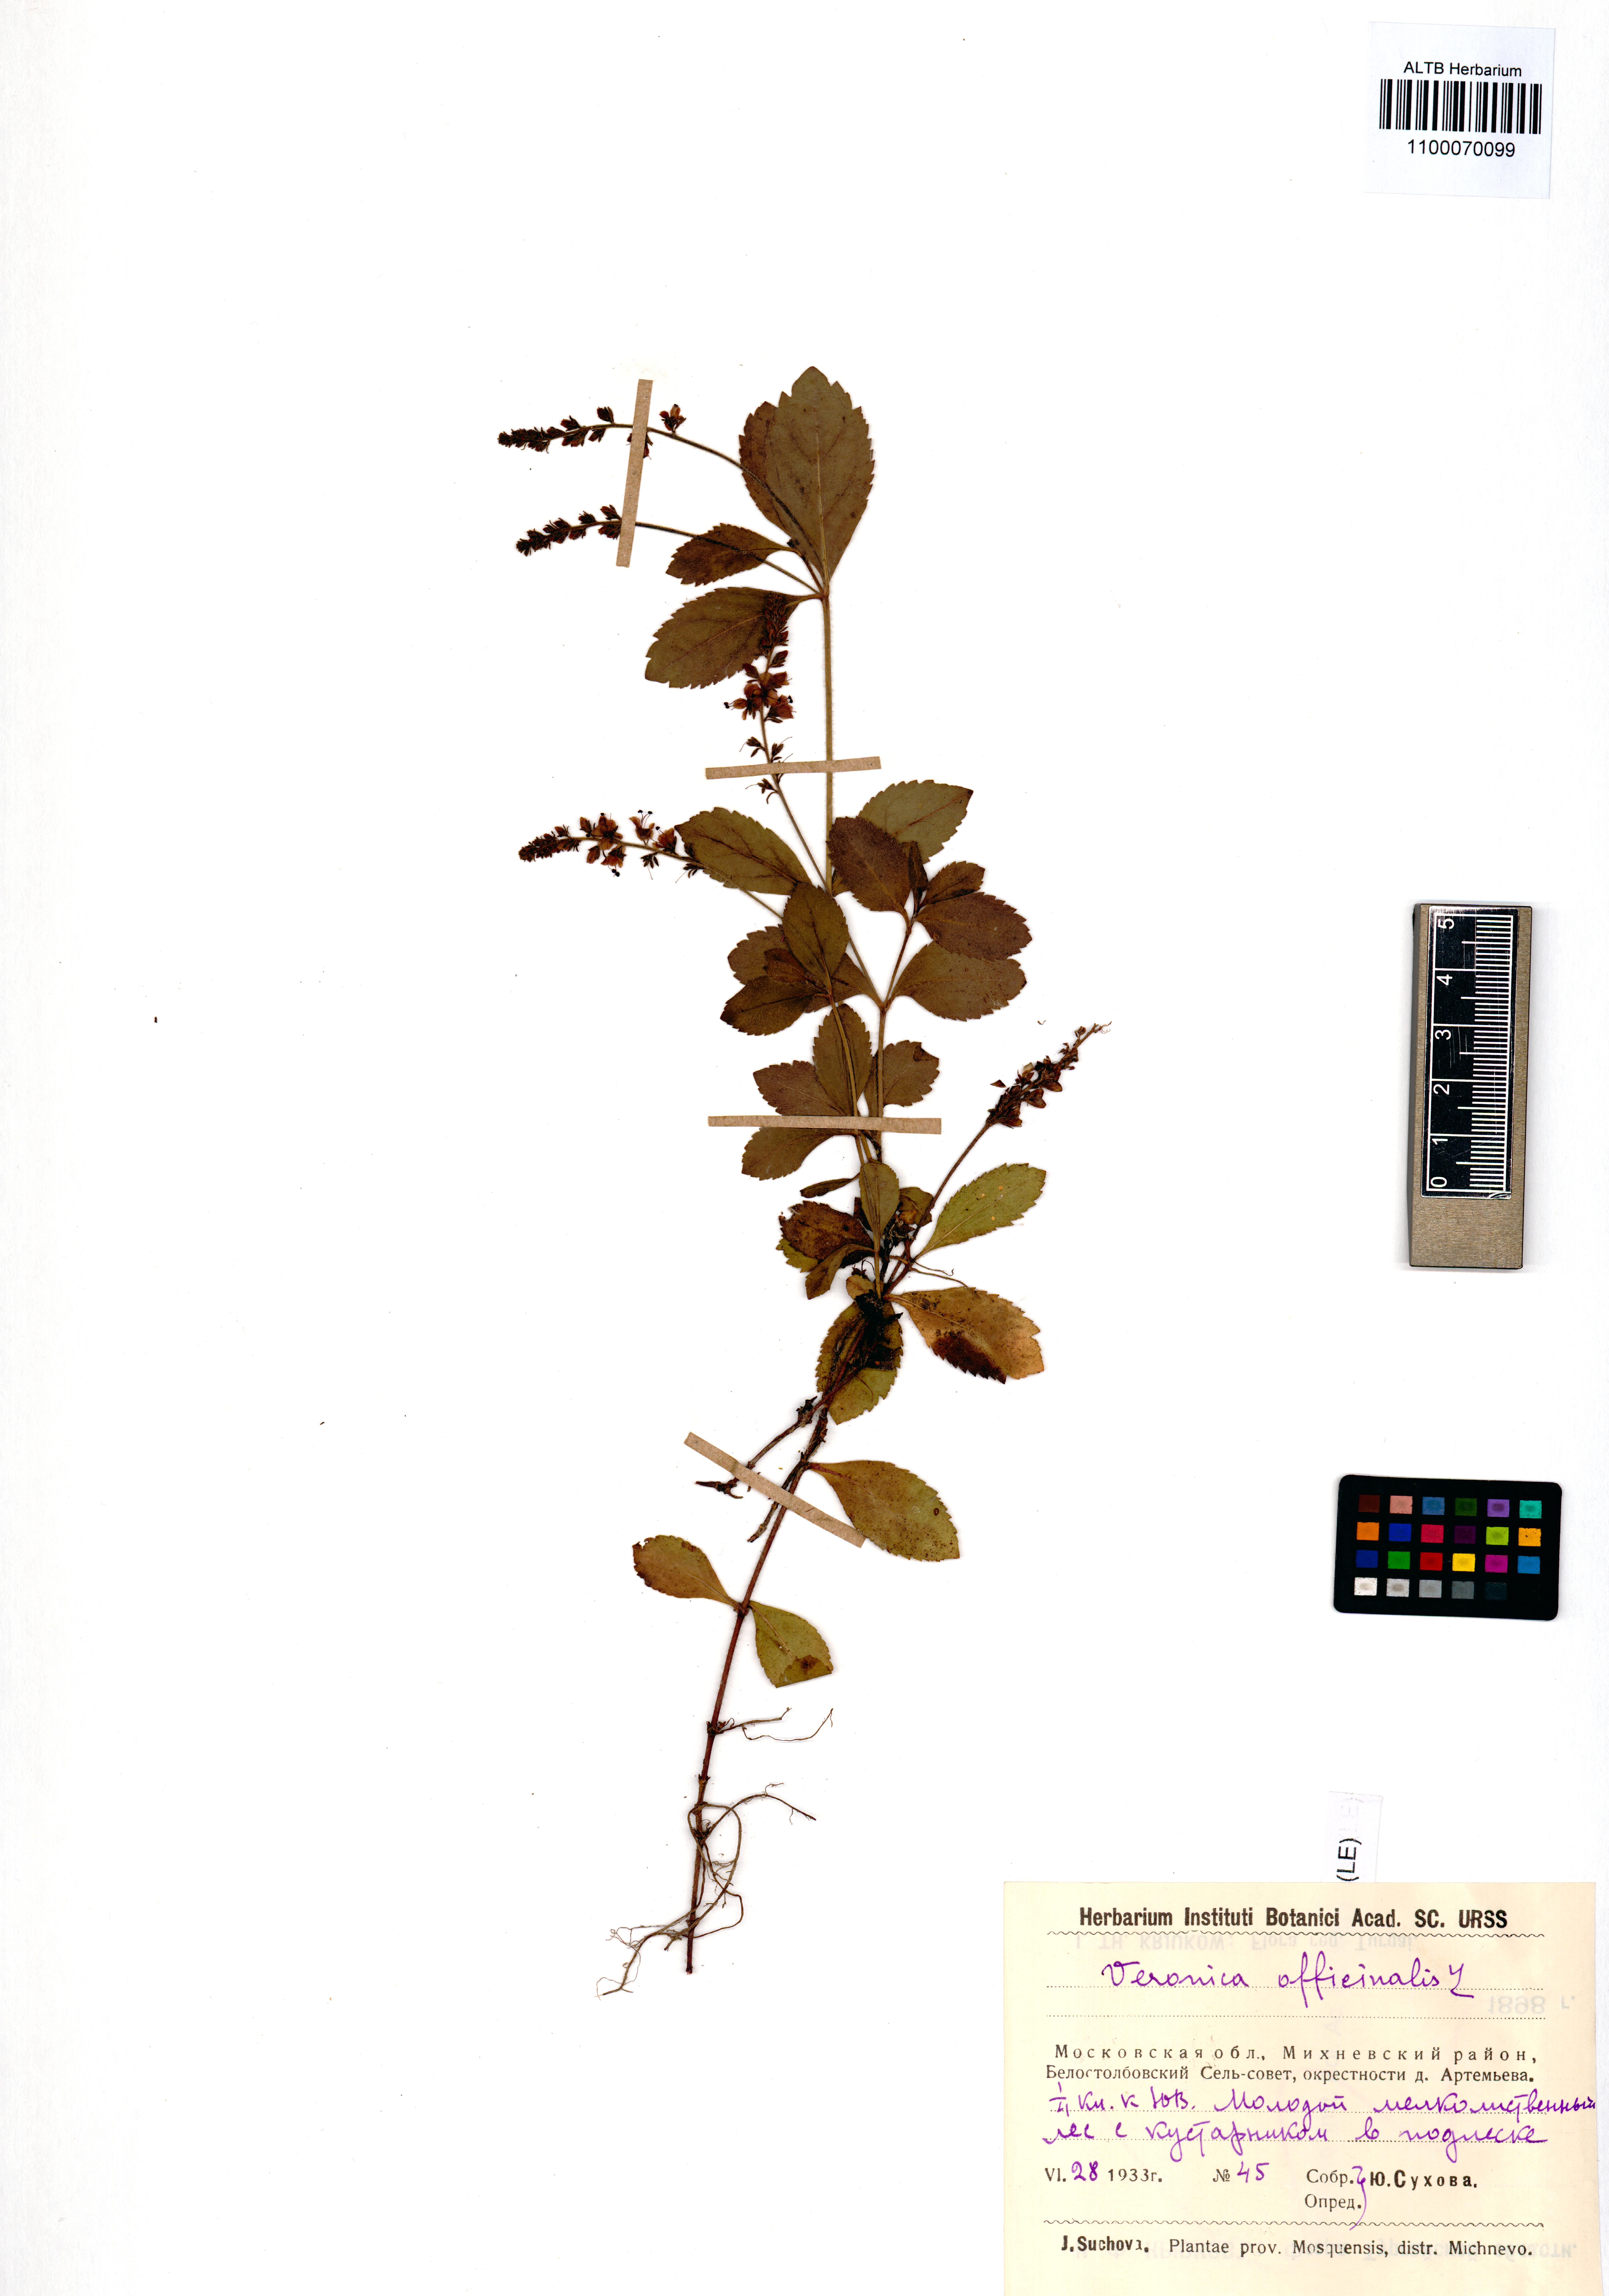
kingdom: Plantae
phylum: Tracheophyta
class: Magnoliopsida
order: Lamiales
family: Plantaginaceae
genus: Veronica
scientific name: Veronica officinalis
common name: Common speedwell
